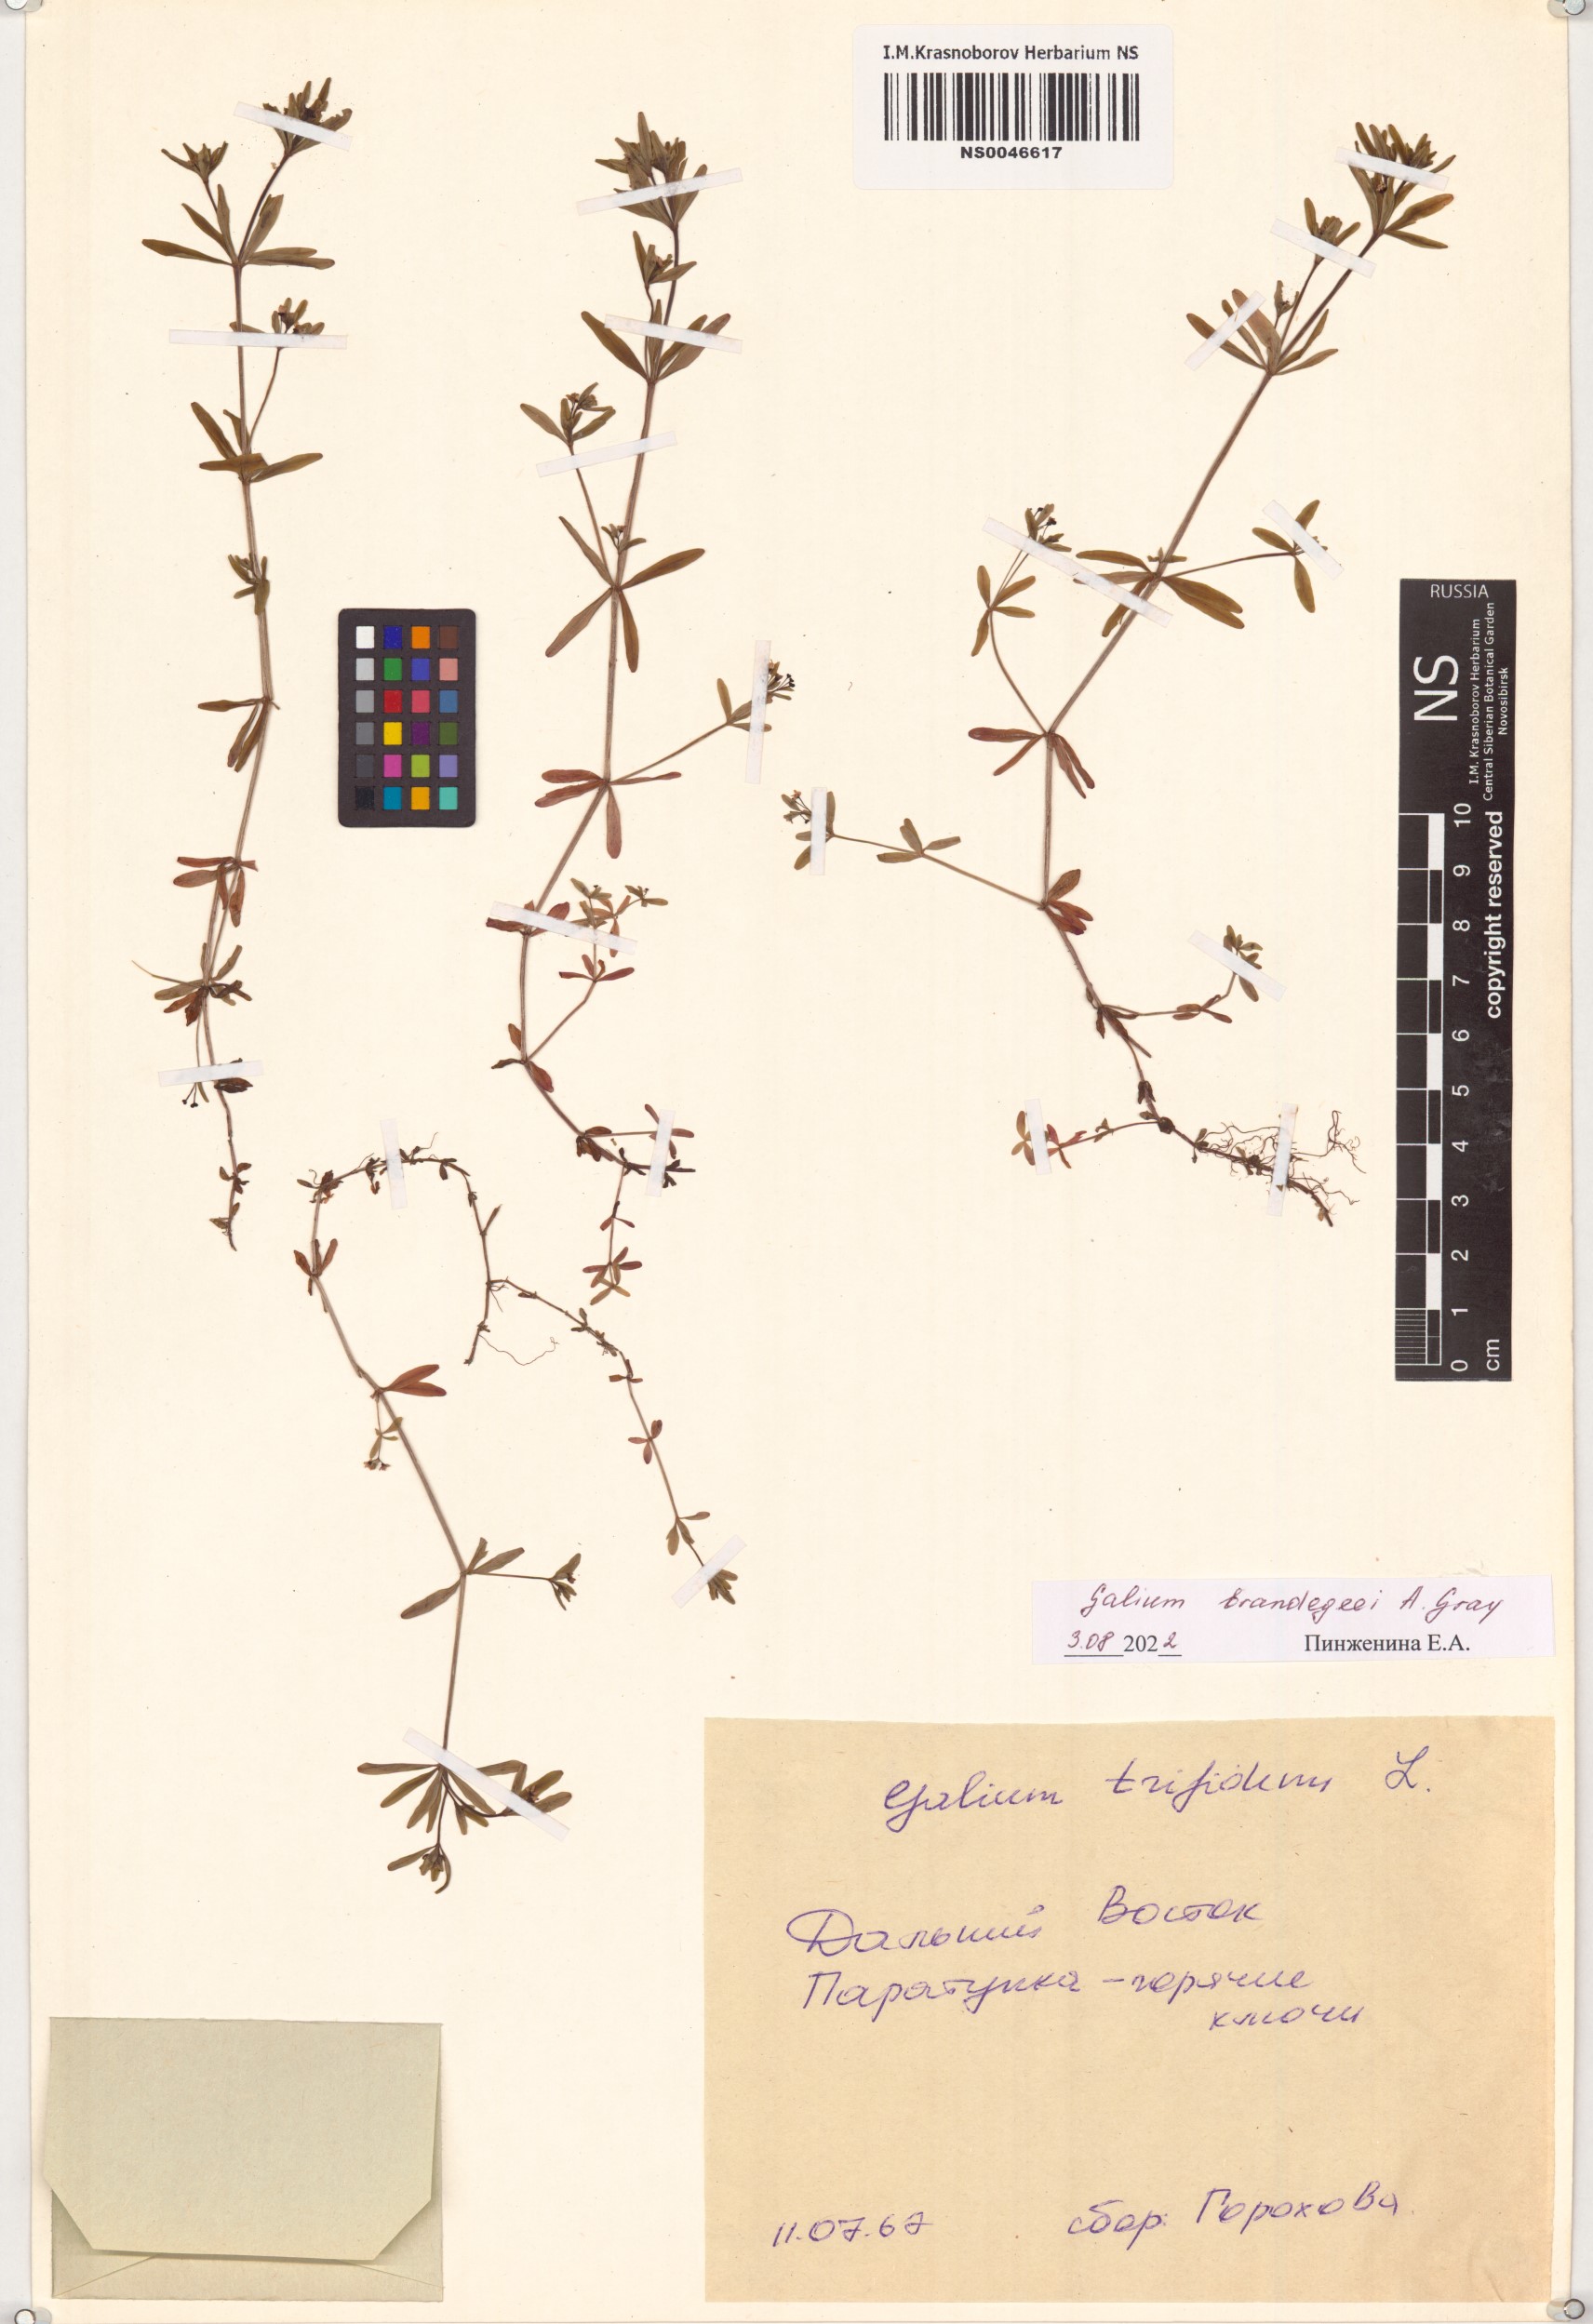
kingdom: Plantae
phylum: Tracheophyta
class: Magnoliopsida
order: Gentianales
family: Rubiaceae
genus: Galium
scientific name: Galium trifidum
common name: Small bedstraw
